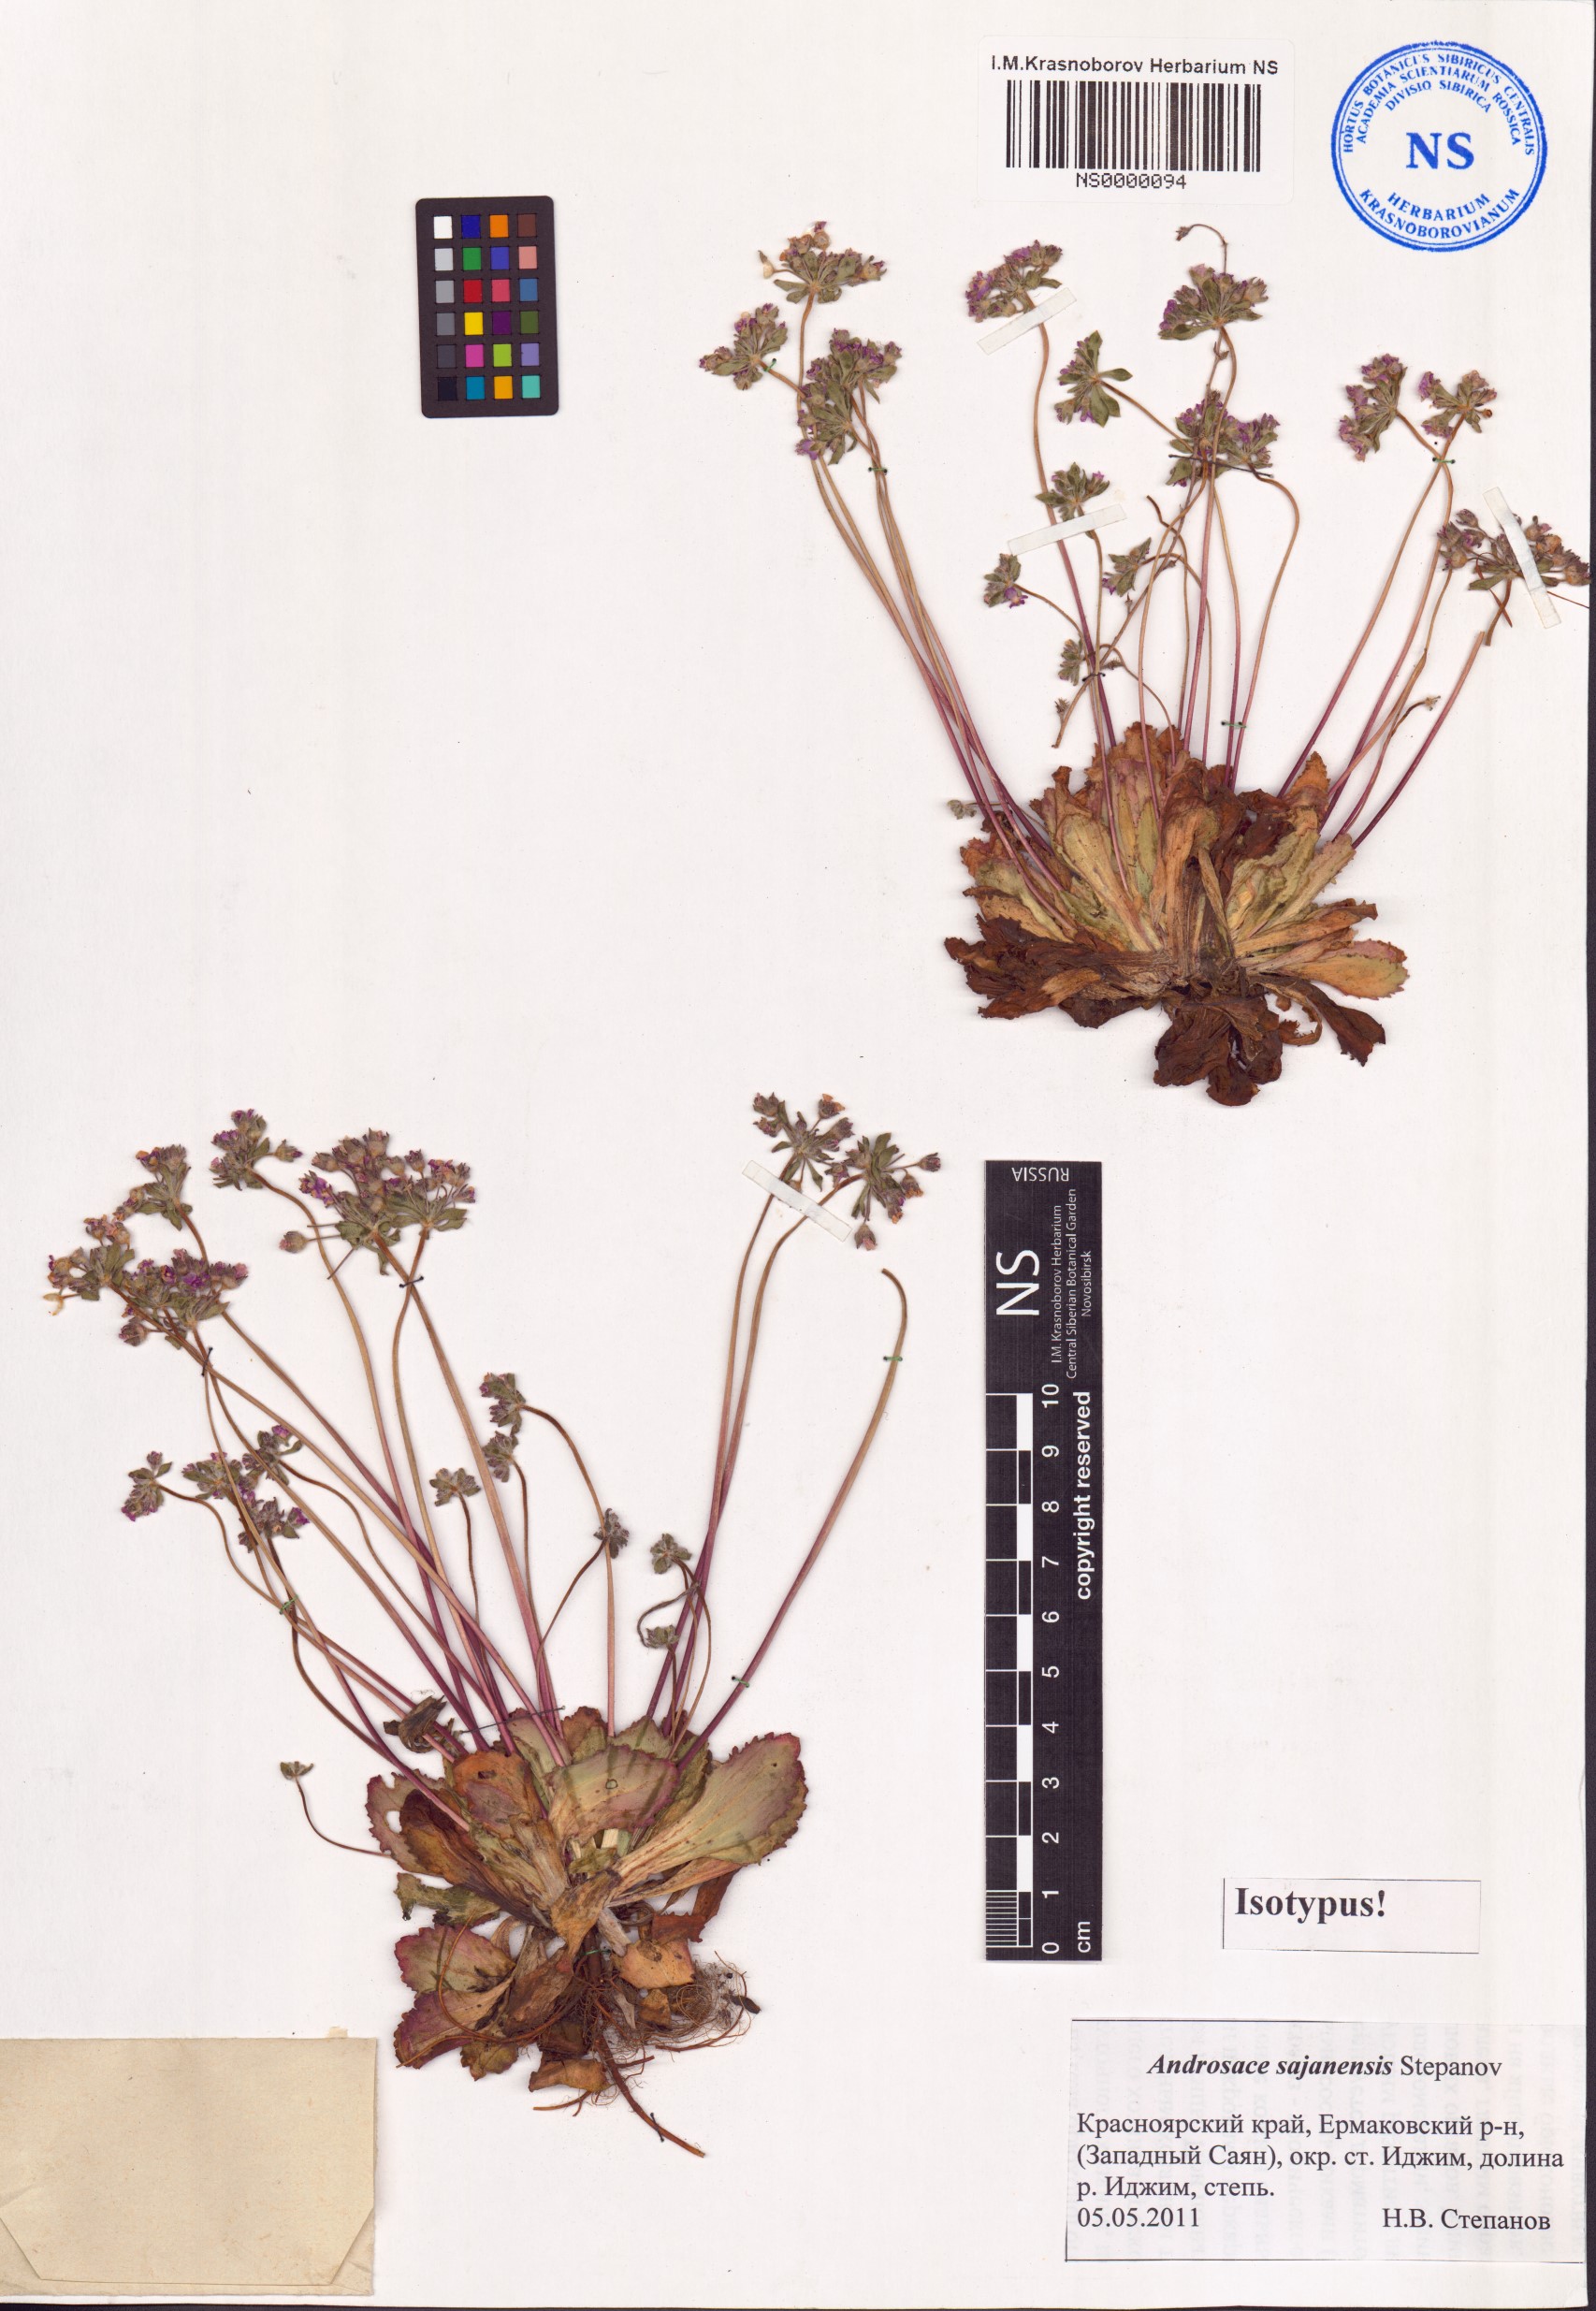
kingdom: Plantae
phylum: Tracheophyta
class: Magnoliopsida
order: Ericales
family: Primulaceae
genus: Androsace
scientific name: Androsace sajanensis
